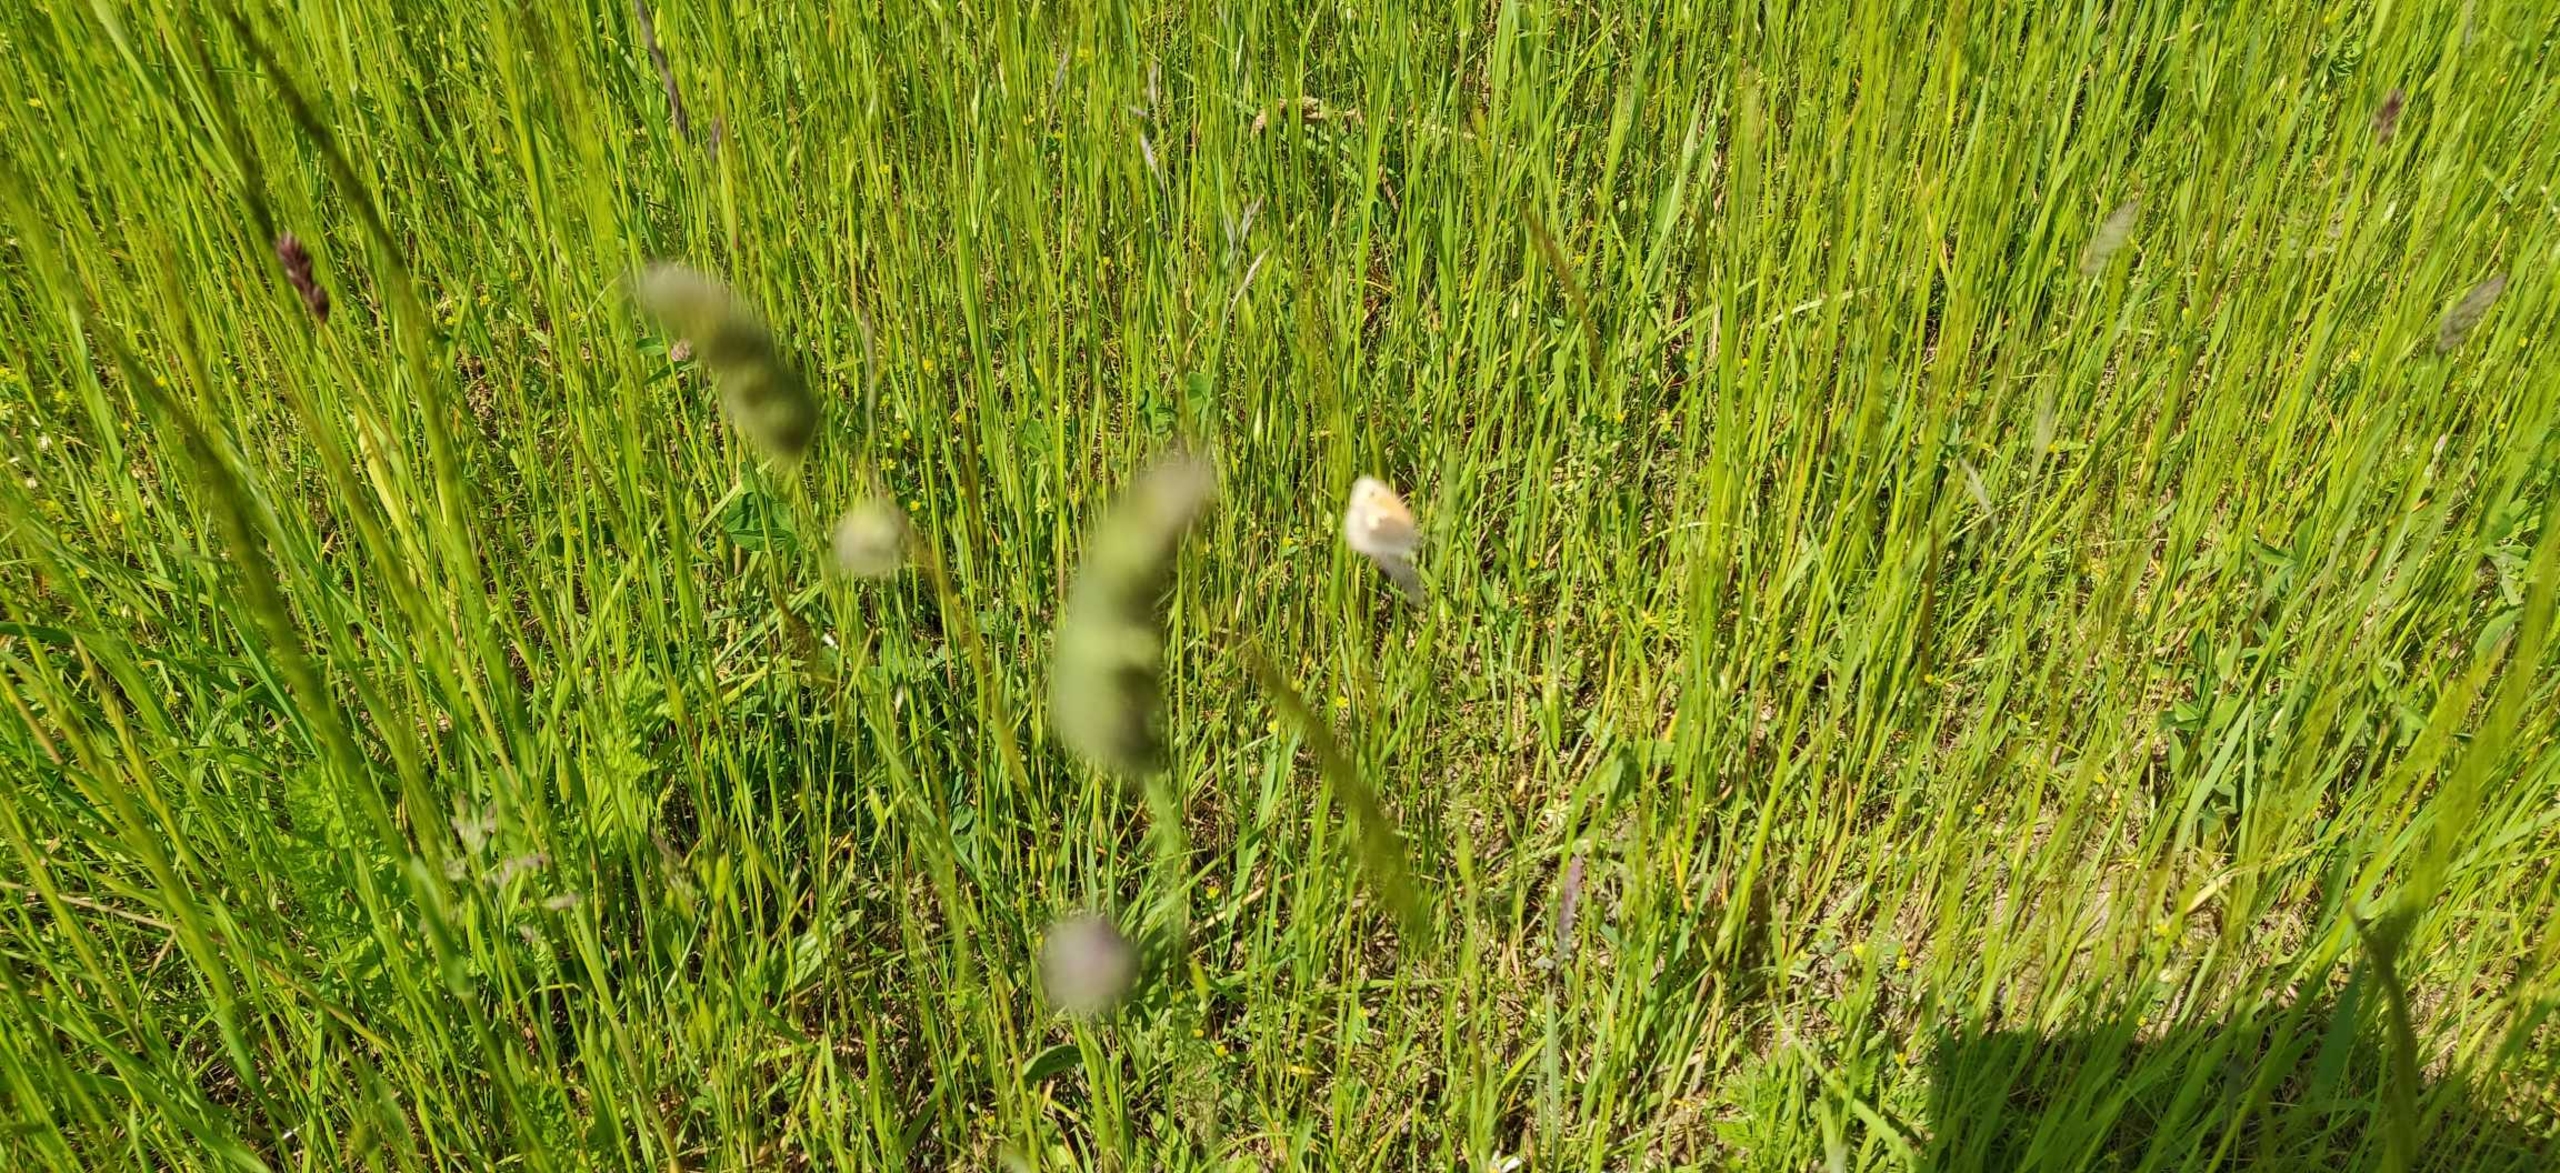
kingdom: Animalia
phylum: Arthropoda
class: Insecta
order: Lepidoptera
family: Nymphalidae
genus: Coenonympha
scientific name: Coenonympha pamphilus
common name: Okkergul randøje
